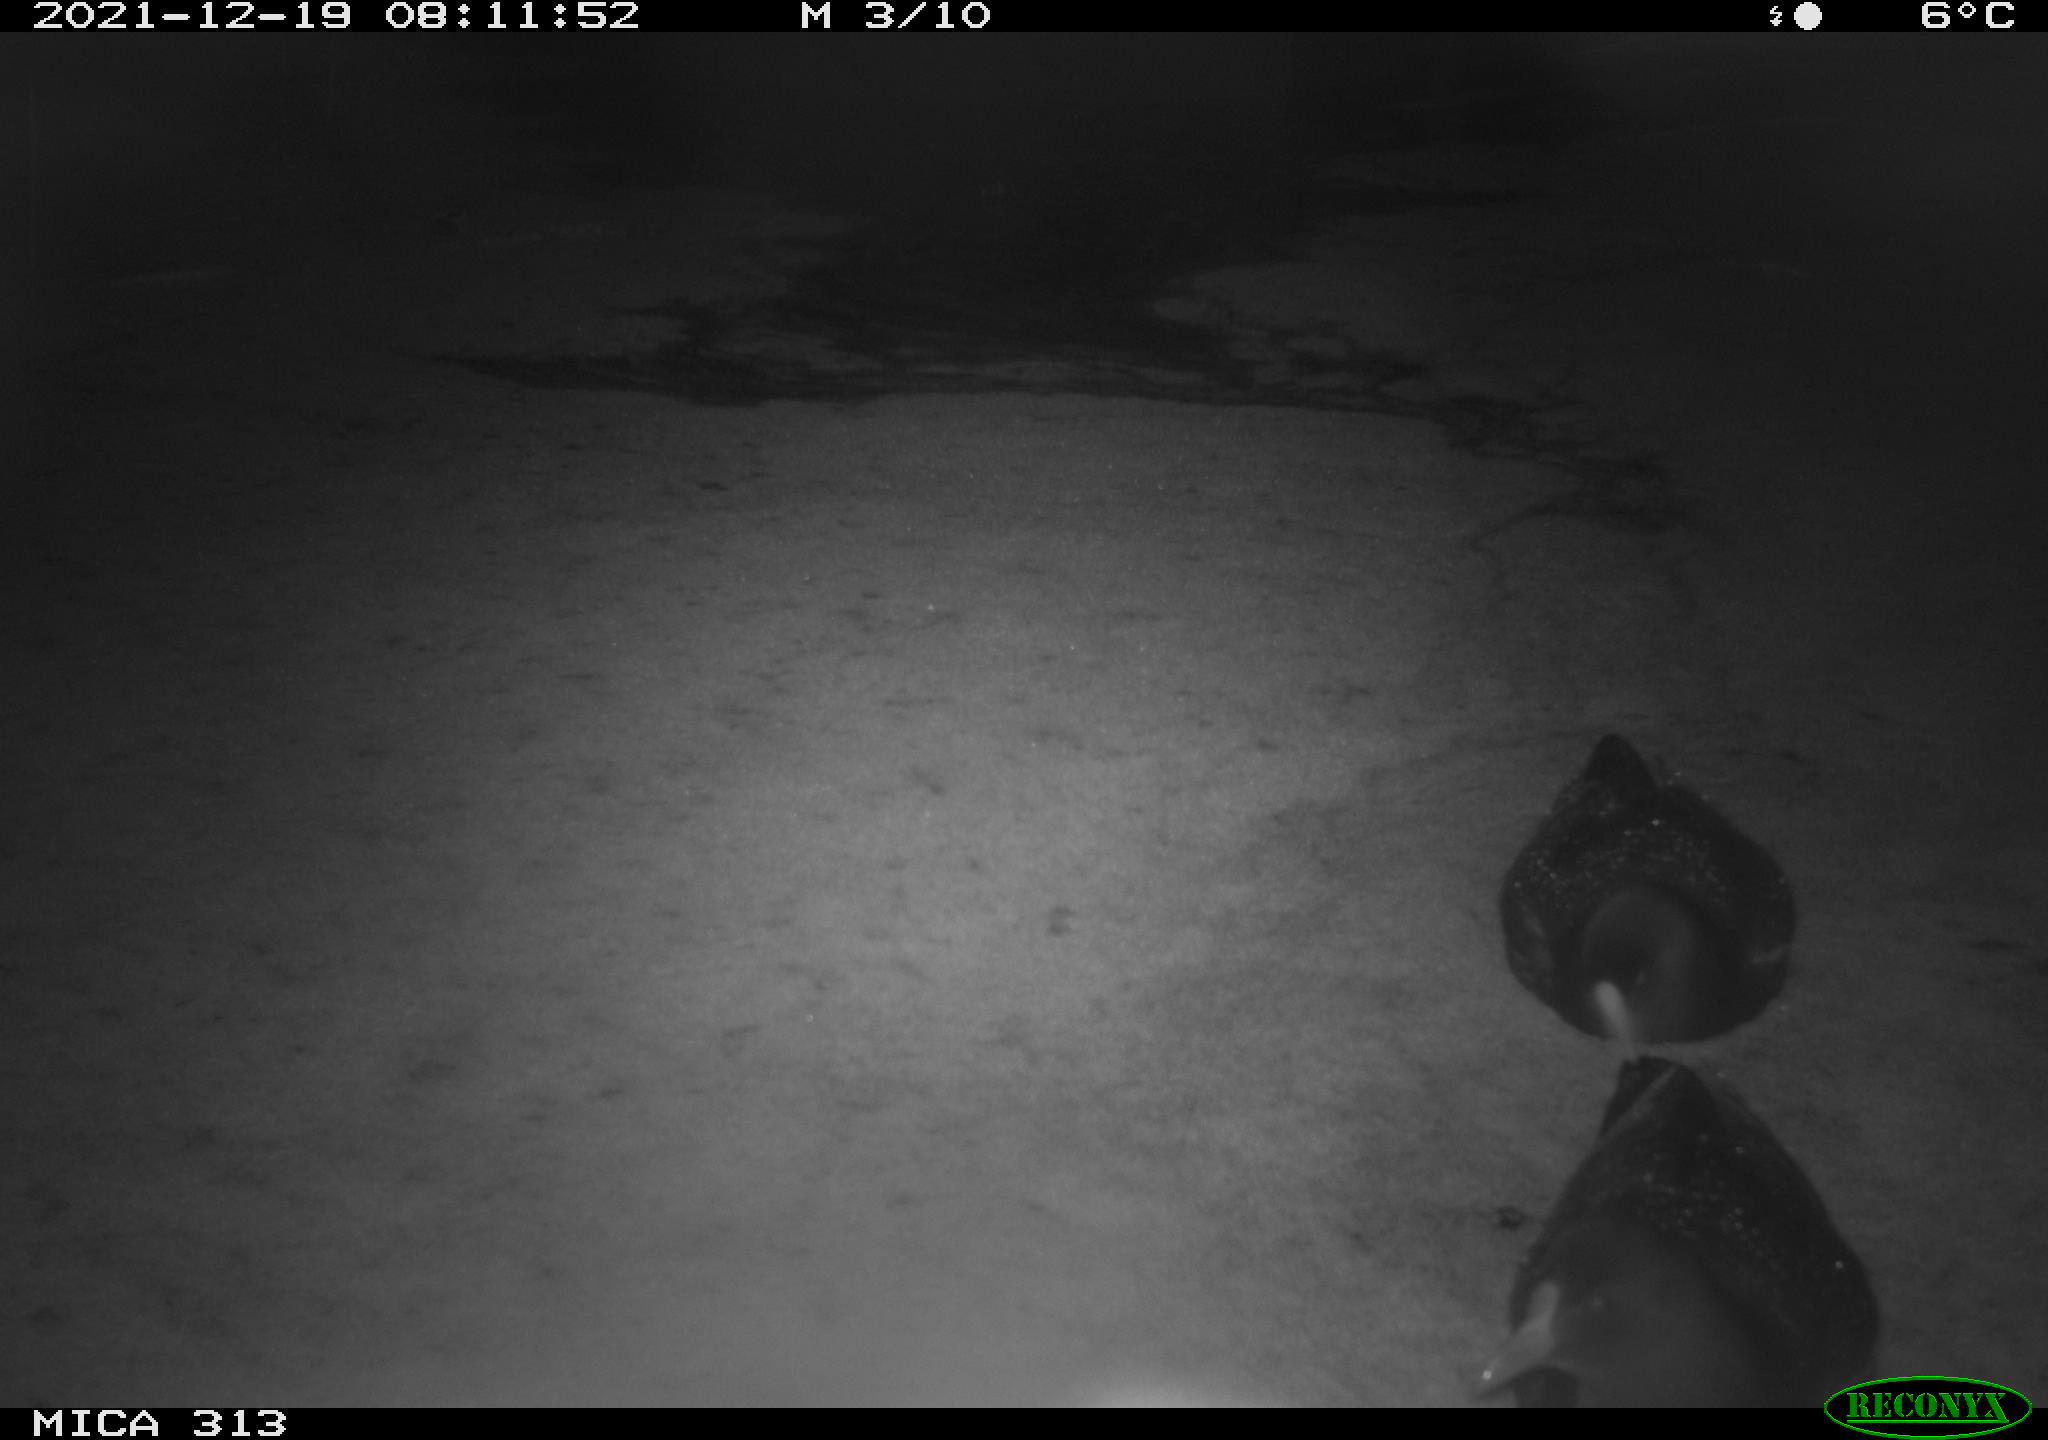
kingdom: Animalia
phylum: Chordata
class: Aves
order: Gruiformes
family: Rallidae
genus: Gallinula
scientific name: Gallinula chloropus
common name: Common moorhen
